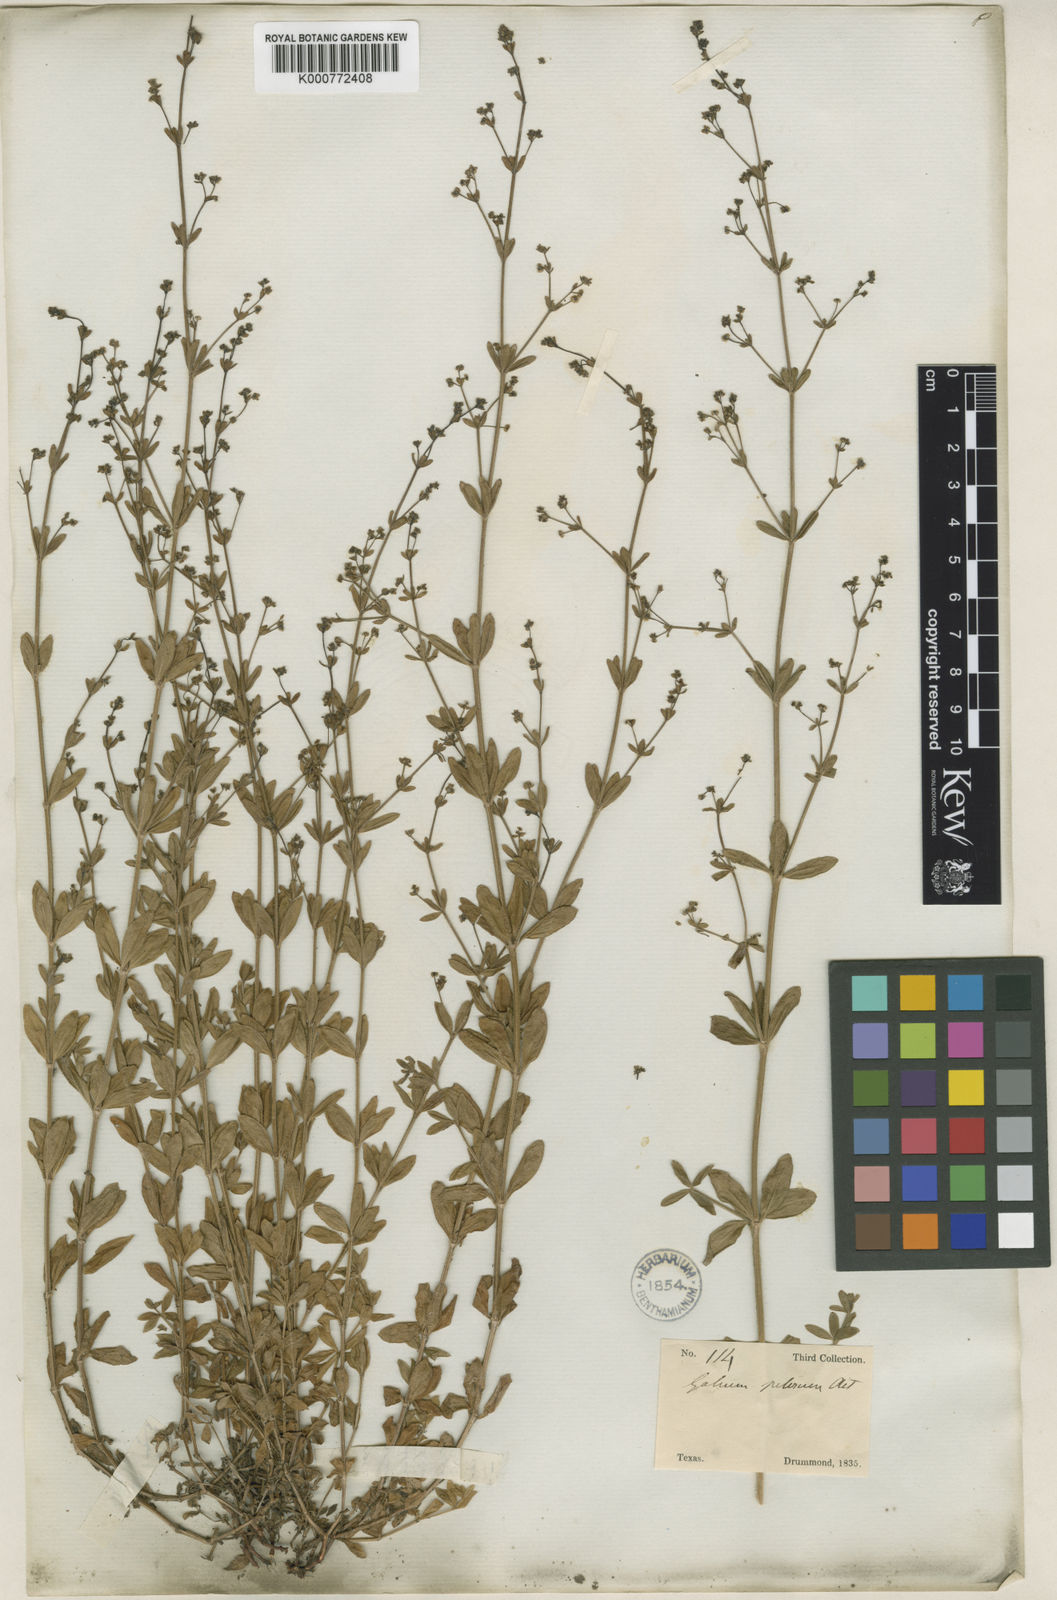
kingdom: Plantae
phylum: Tracheophyta
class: Magnoliopsida
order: Gentianales
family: Rubiaceae
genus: Galium
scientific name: Galium pilosum
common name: Hairy bedstraw
